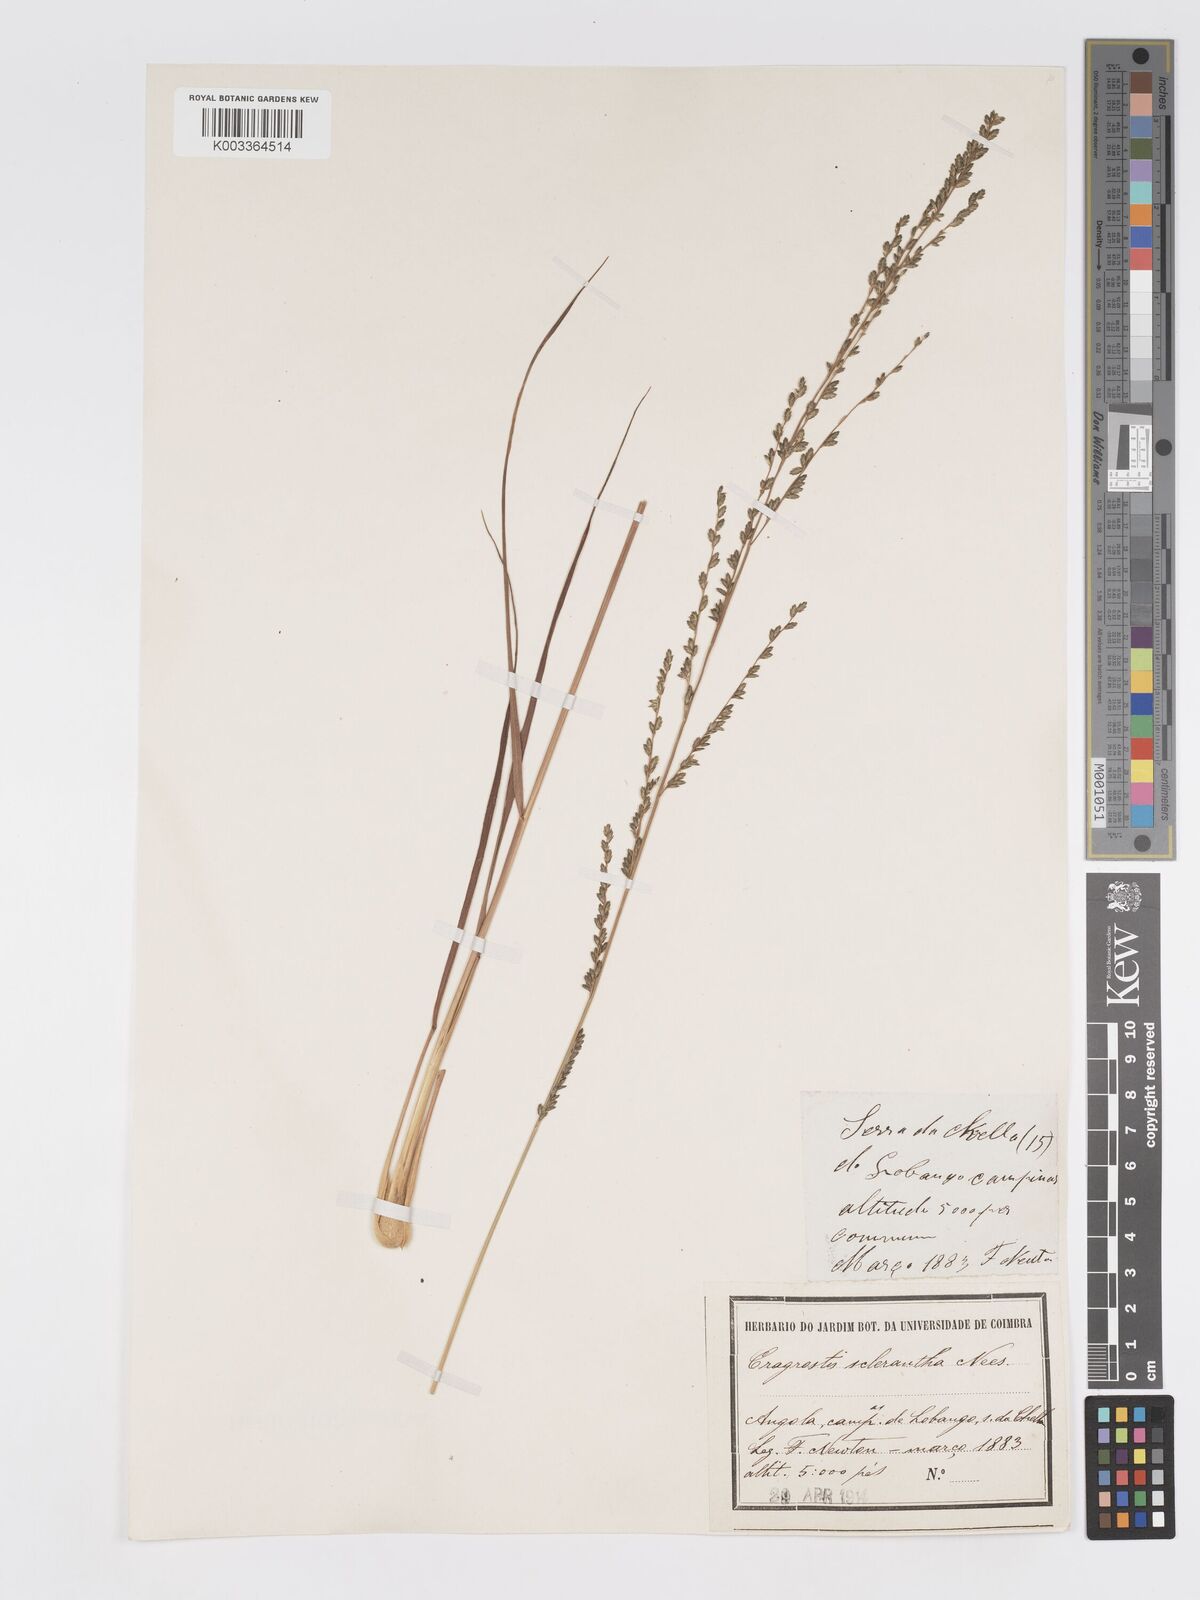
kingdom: Plantae
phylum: Tracheophyta
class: Liliopsida
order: Poales
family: Poaceae
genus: Eragrostis
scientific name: Eragrostis sclerantha
